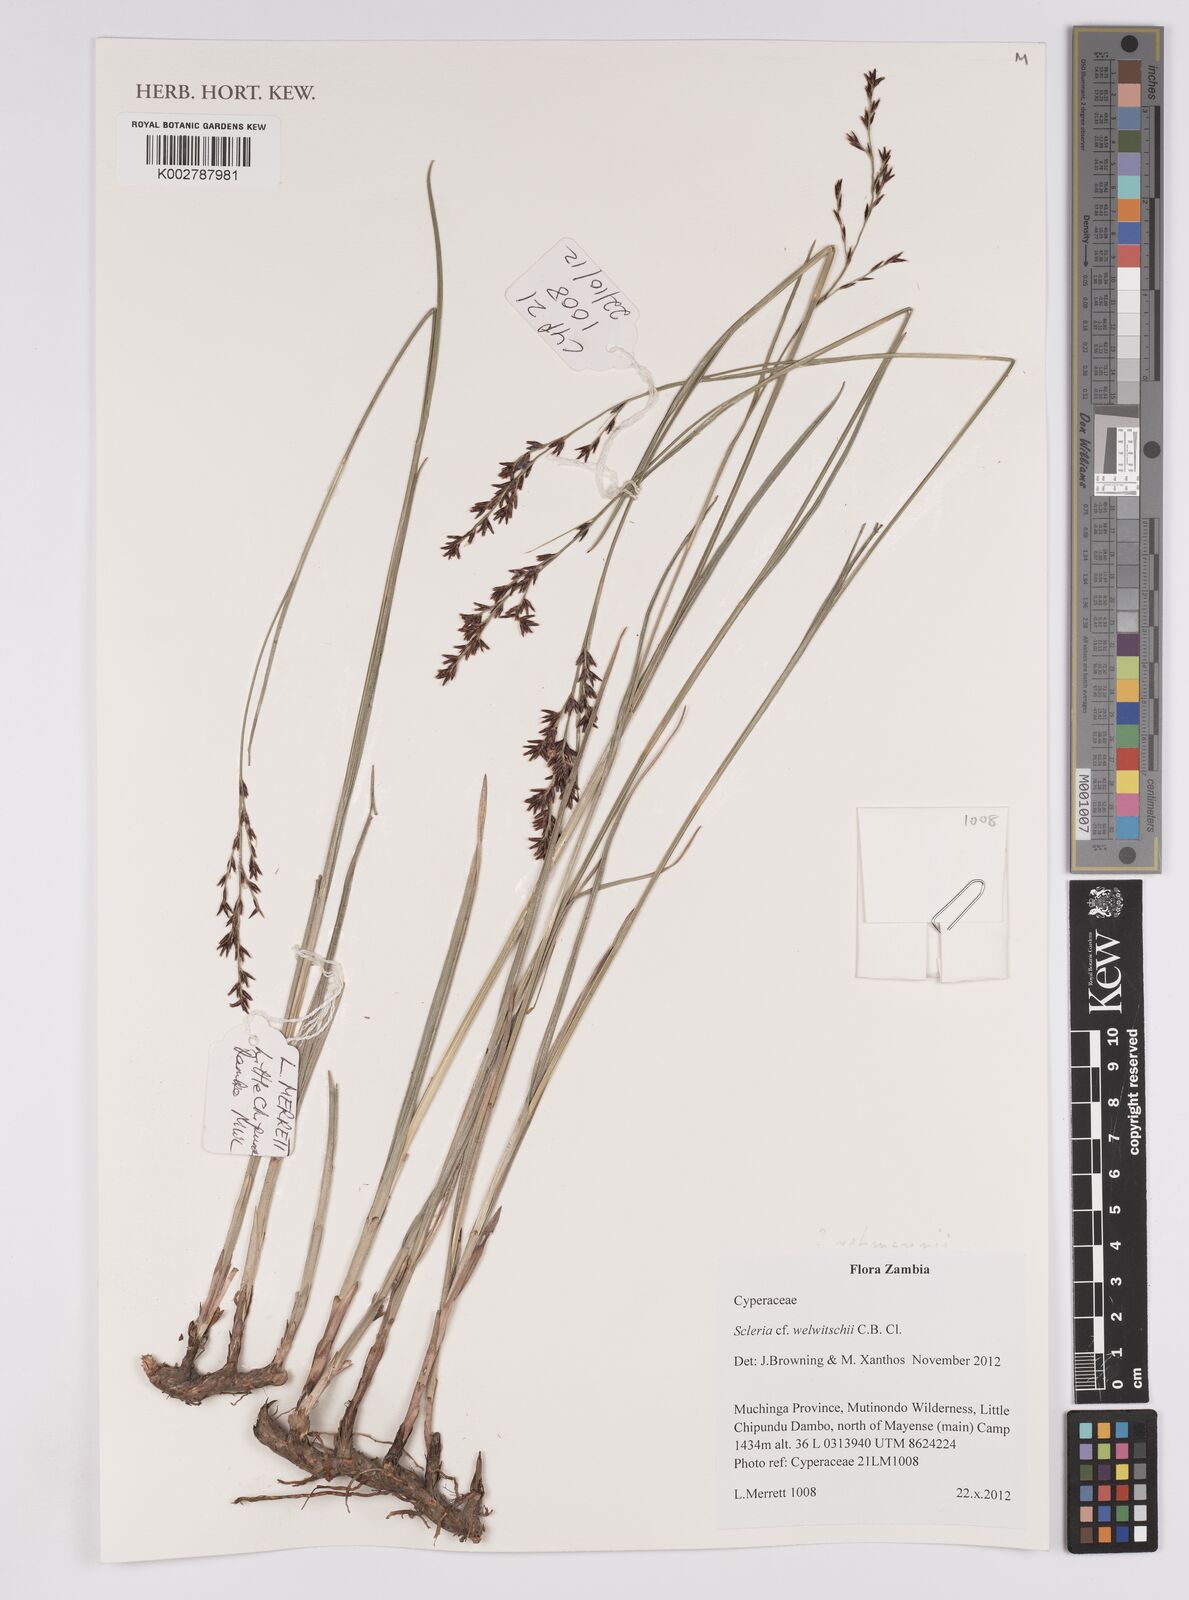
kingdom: Plantae
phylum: Tracheophyta
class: Liliopsida
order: Poales
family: Cyperaceae
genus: Scleria
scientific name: Scleria rehmannii
